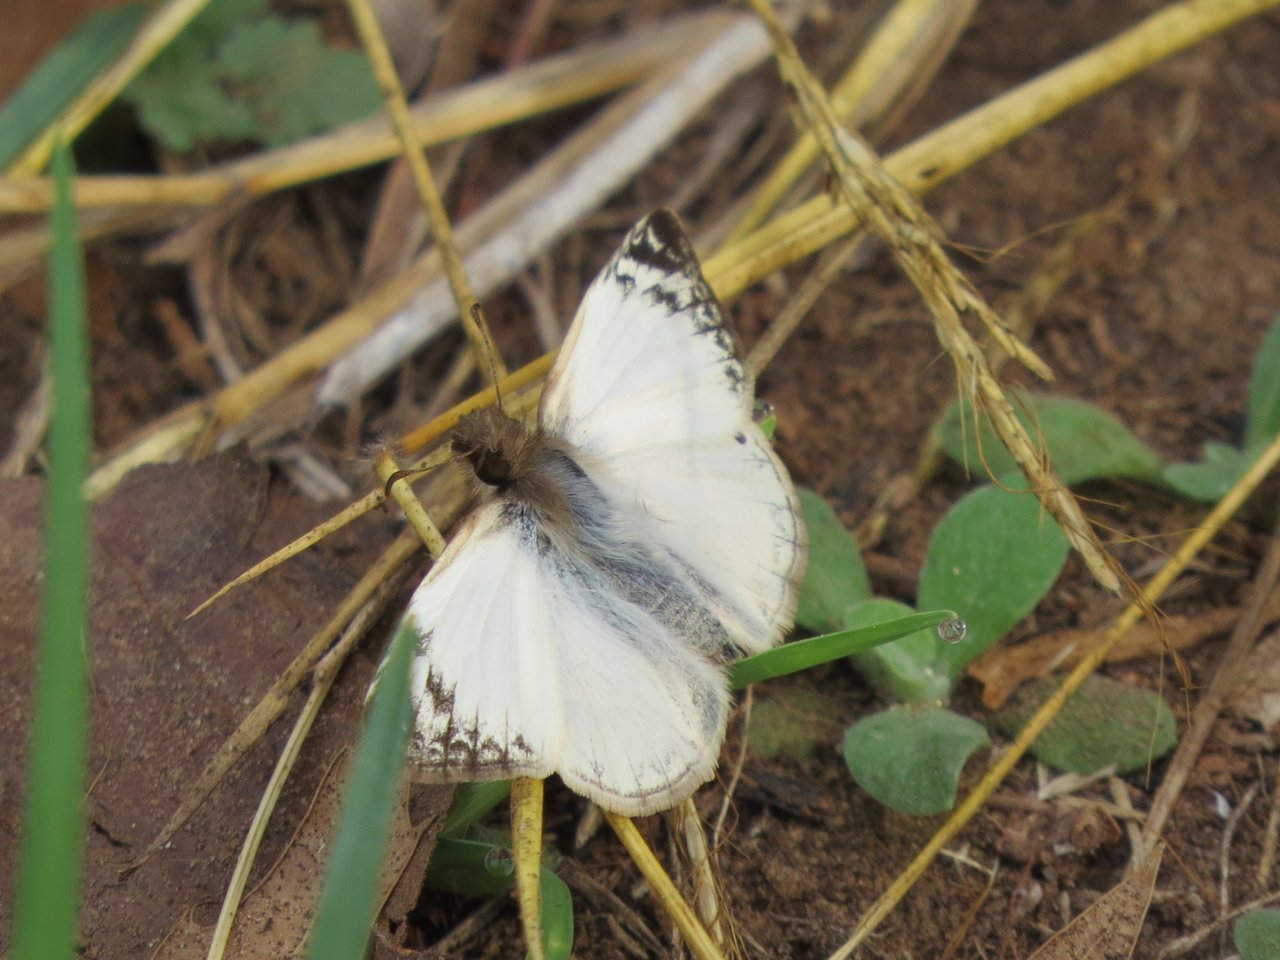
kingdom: Animalia
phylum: Arthropoda
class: Insecta
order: Lepidoptera
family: Hesperiidae
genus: Heliopetes
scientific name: Heliopetes laviana
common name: Laviana White-Skipper
